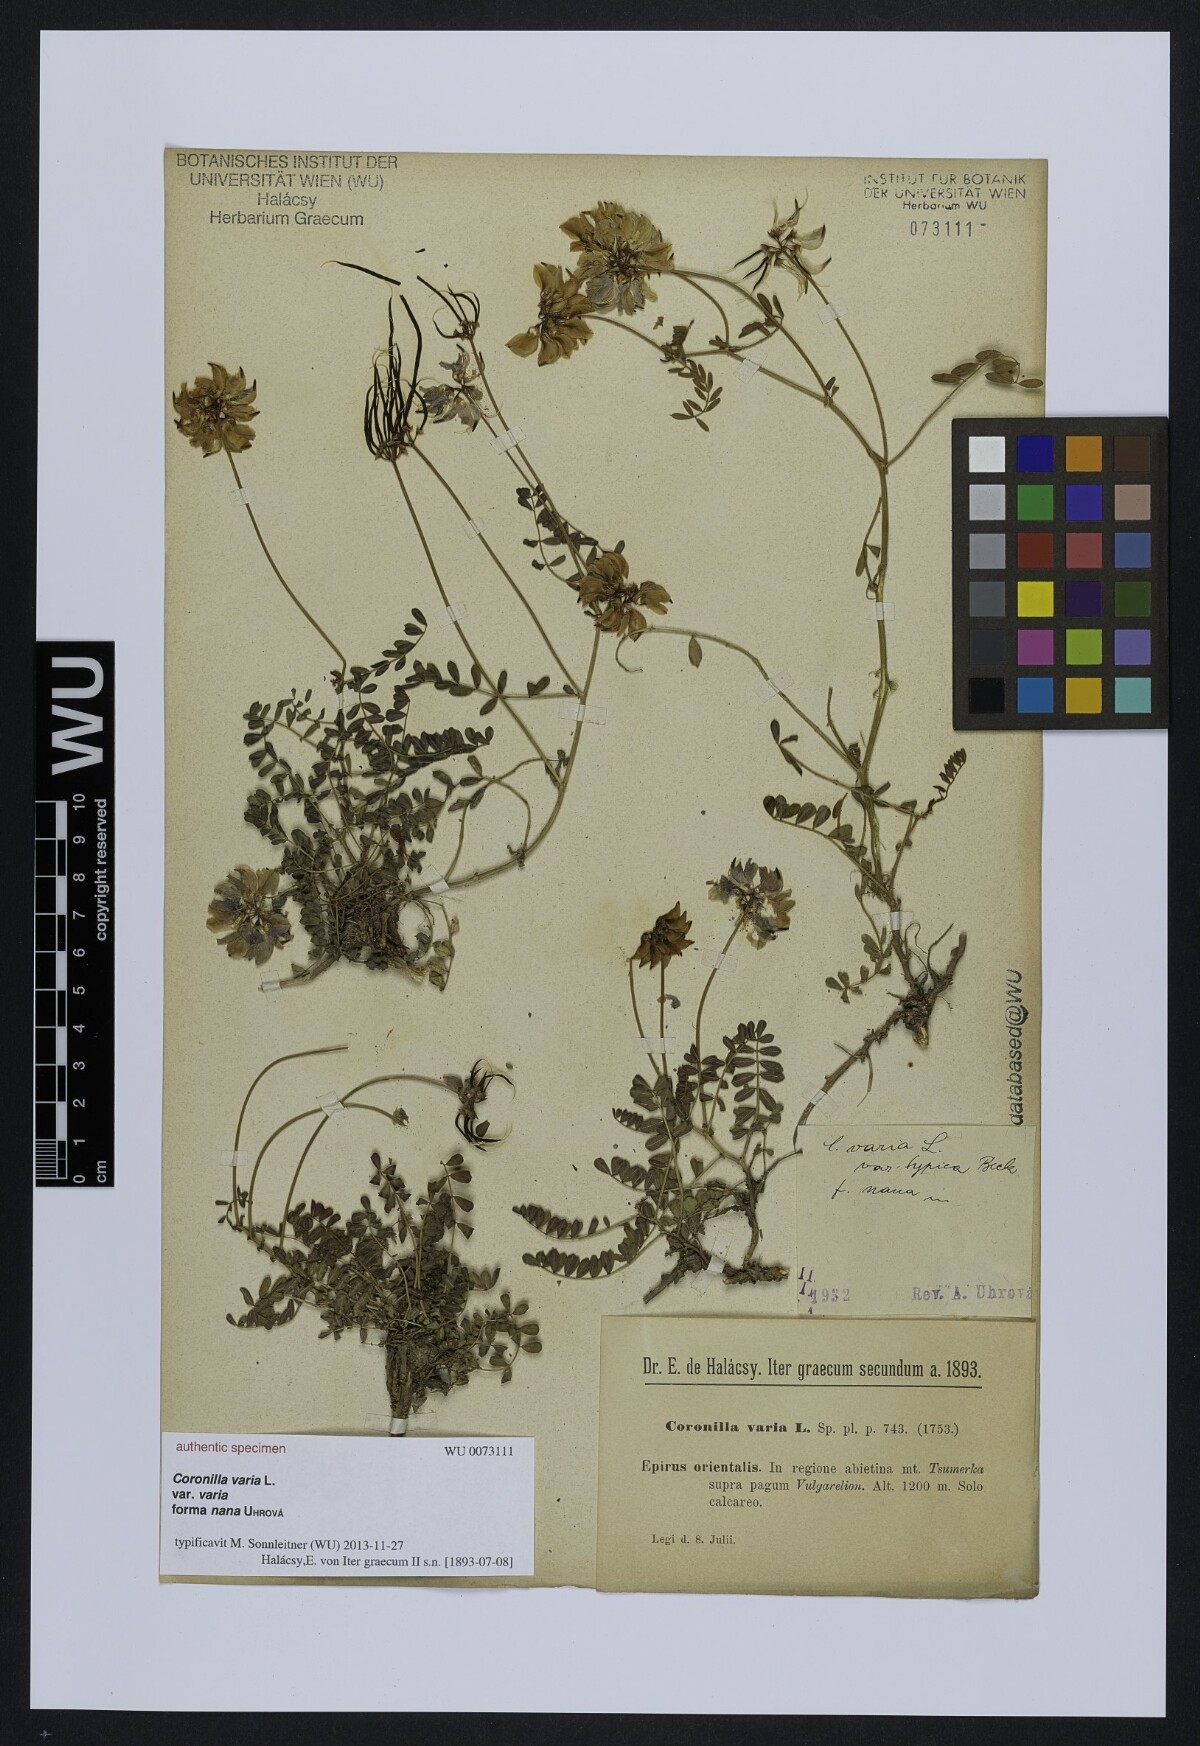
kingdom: Plantae
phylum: Tracheophyta
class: Magnoliopsida
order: Fabales
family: Fabaceae
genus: Coronilla
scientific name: Coronilla varia
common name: Crownvetch
